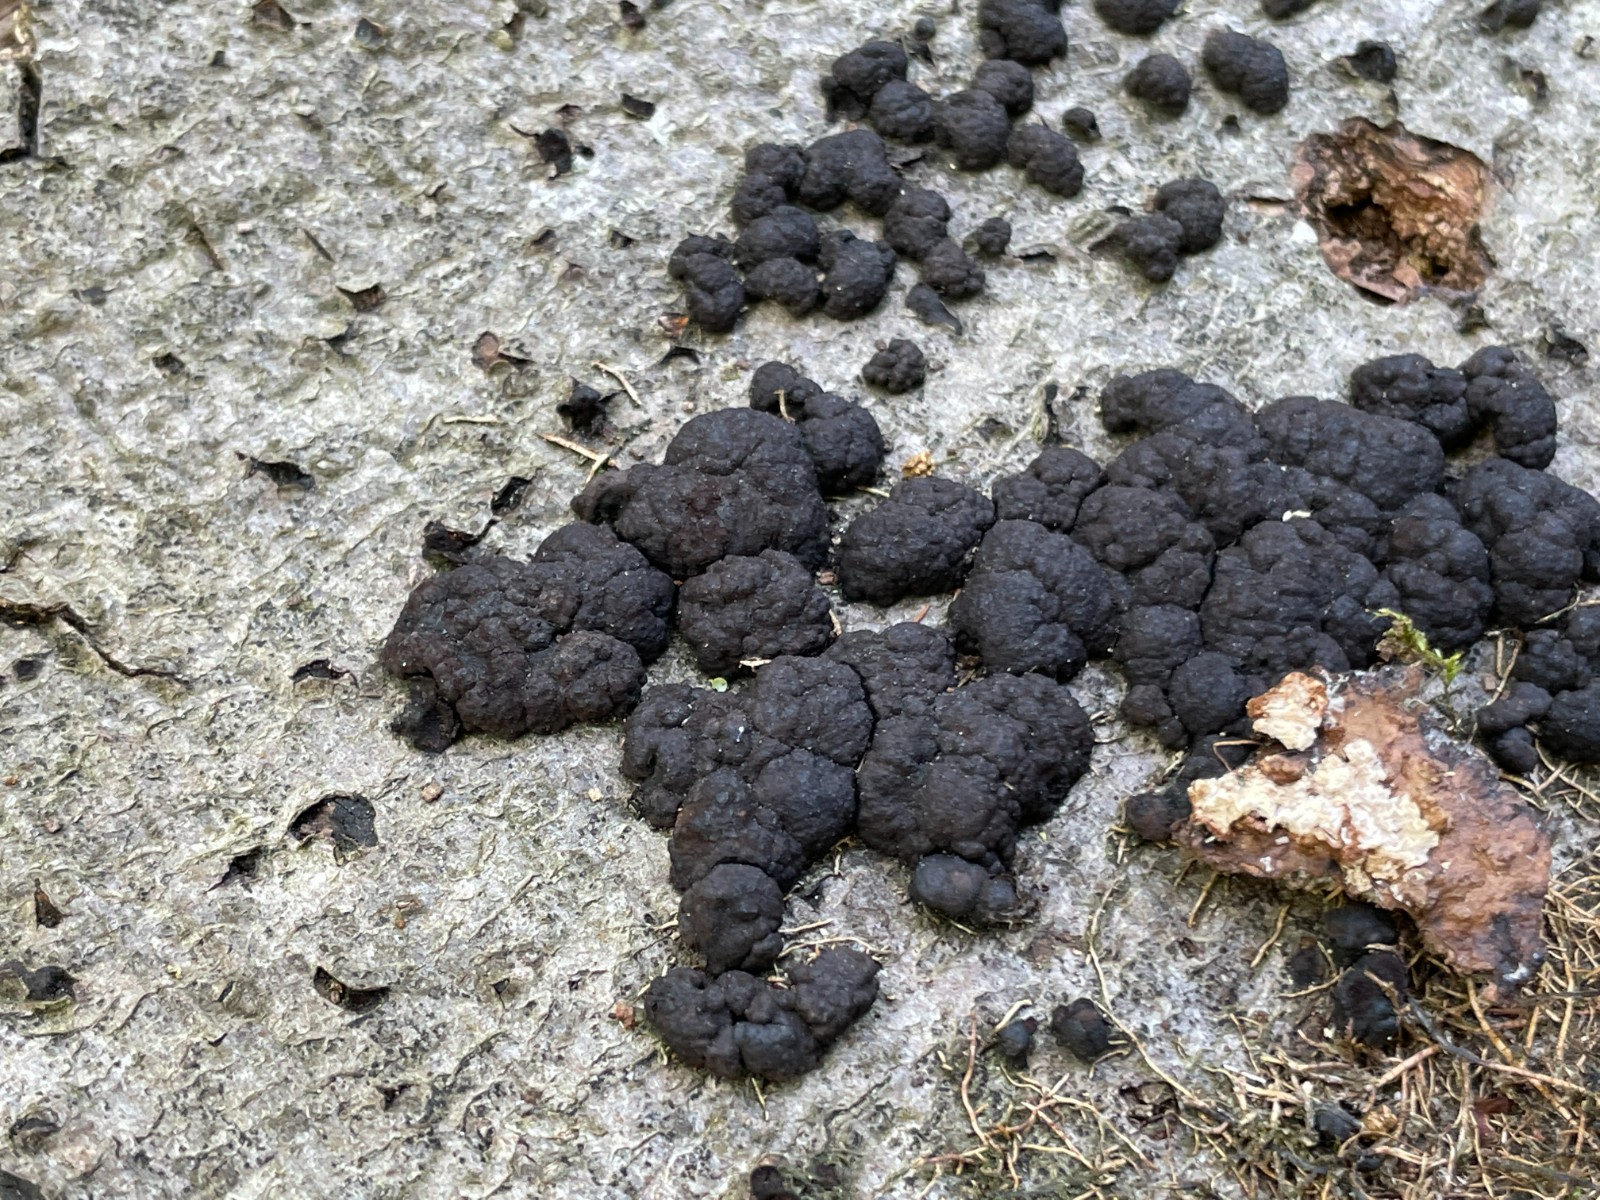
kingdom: Fungi
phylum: Ascomycota
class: Sordariomycetes
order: Xylariales
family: Hypoxylaceae
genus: Jackrogersella
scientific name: Jackrogersella cohaerens
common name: sammenflydende kulbær
